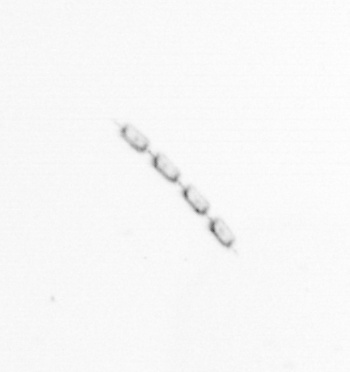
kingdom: Chromista
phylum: Ochrophyta
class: Bacillariophyceae
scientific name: Bacillariophyceae
